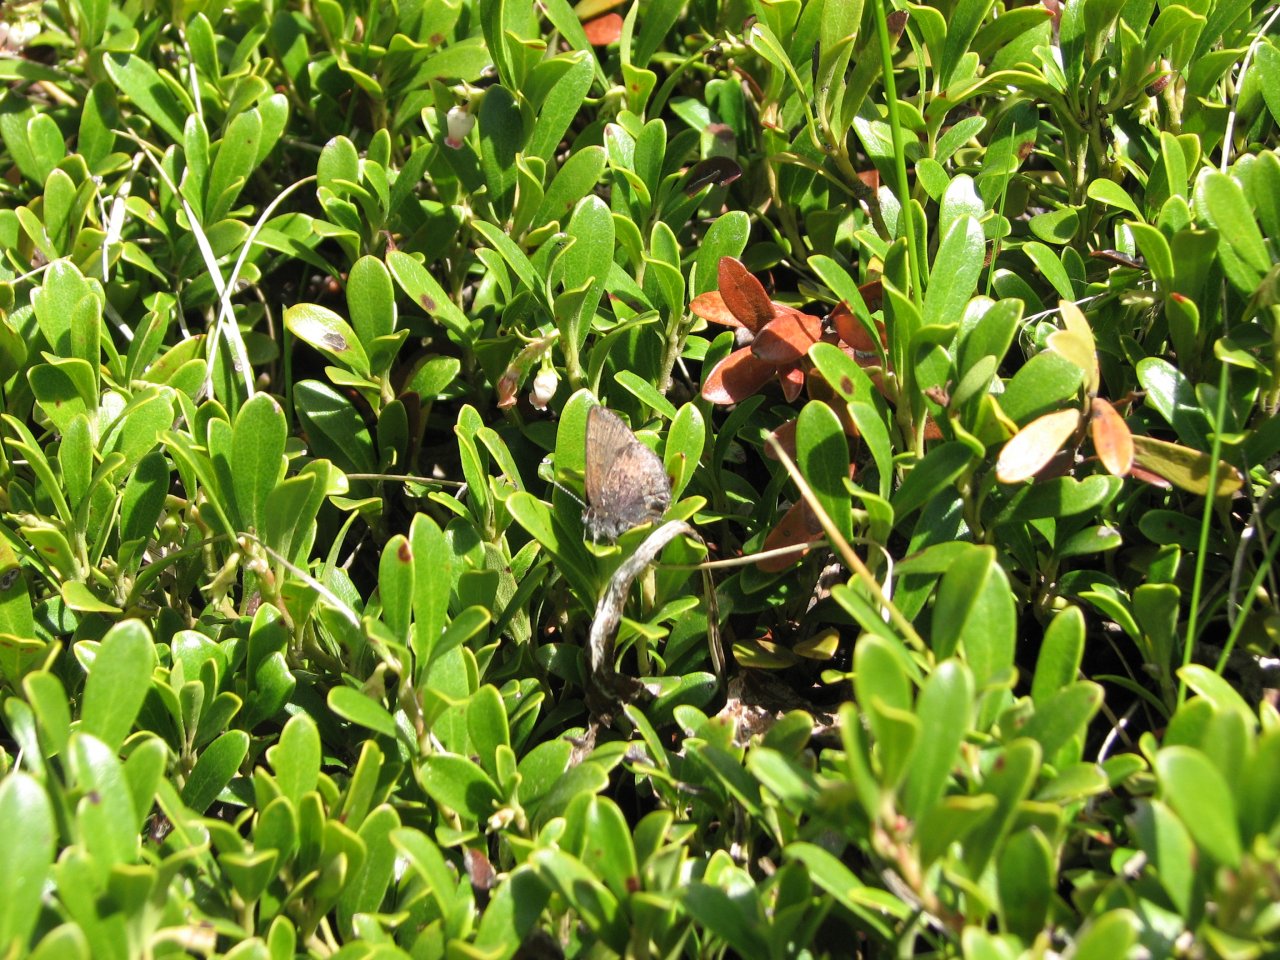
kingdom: Animalia
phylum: Arthropoda
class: Insecta
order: Lepidoptera
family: Lycaenidae
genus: Incisalia
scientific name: Incisalia irioides
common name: Brown Elfin
